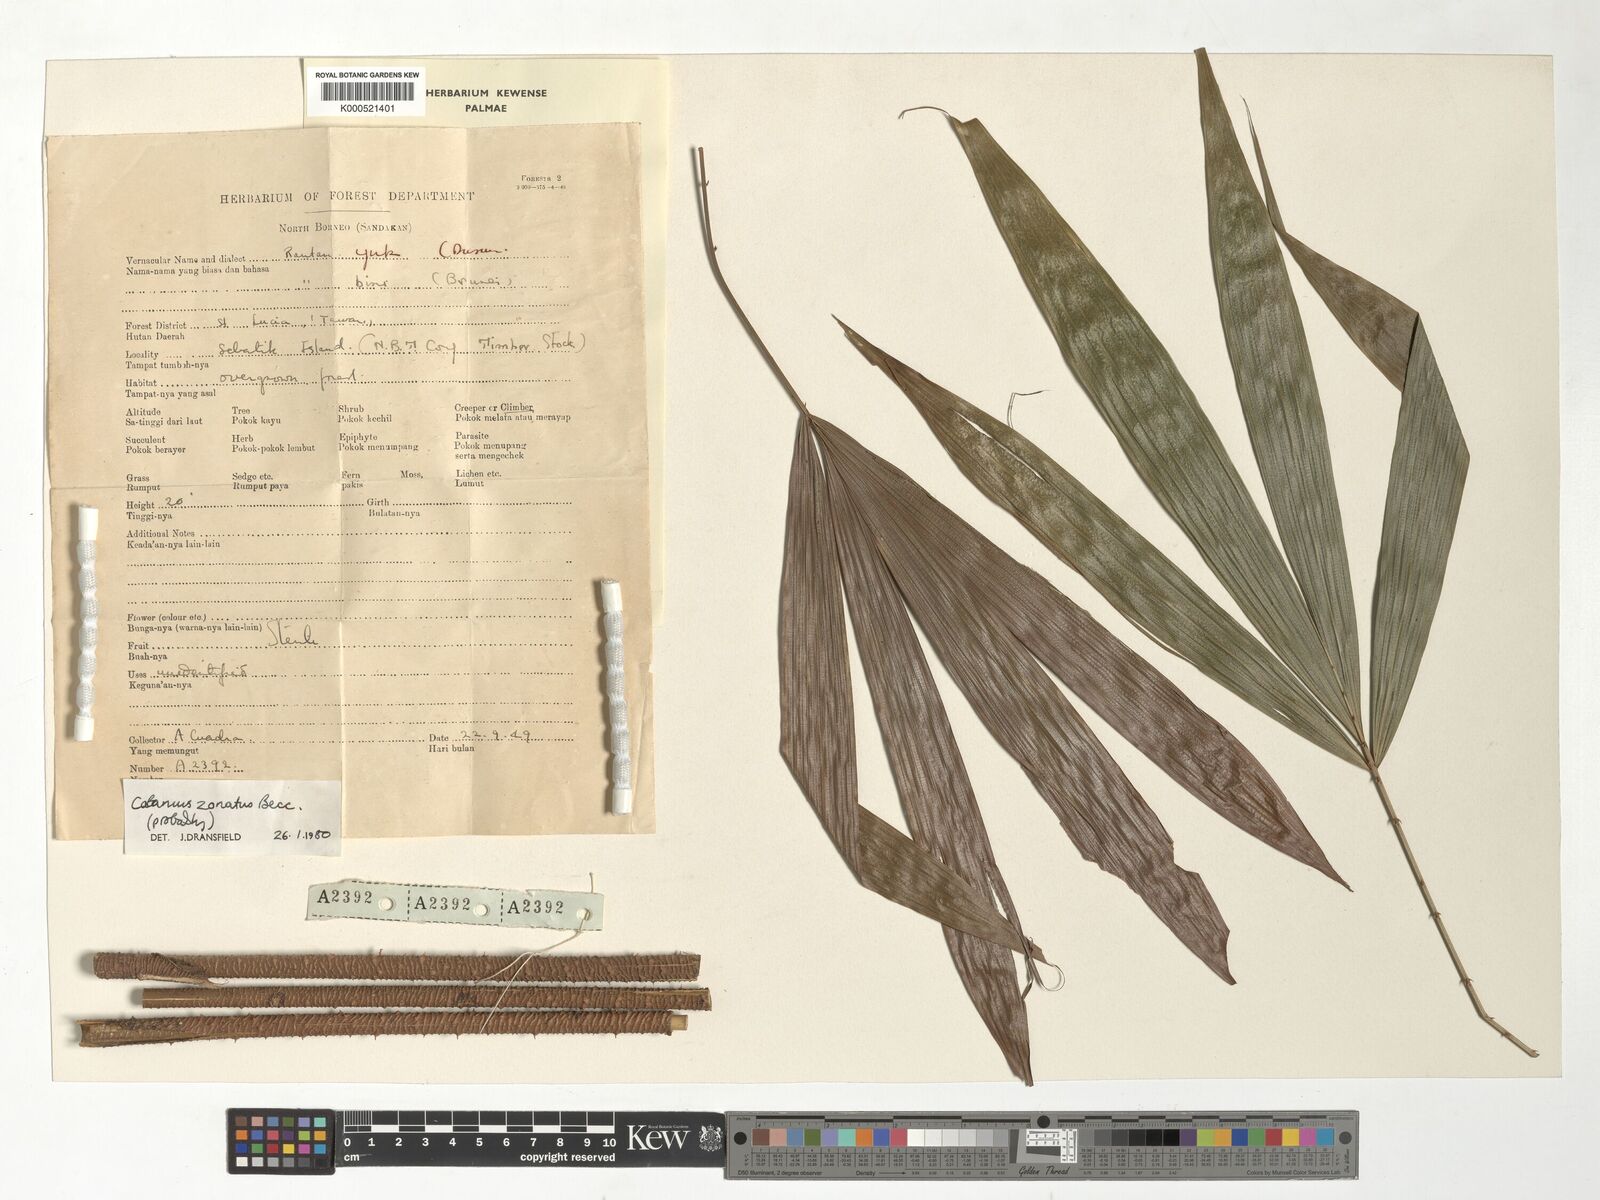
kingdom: Plantae
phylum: Tracheophyta
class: Liliopsida
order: Arecales
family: Arecaceae
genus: Calamus
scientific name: Calamus zonatus
